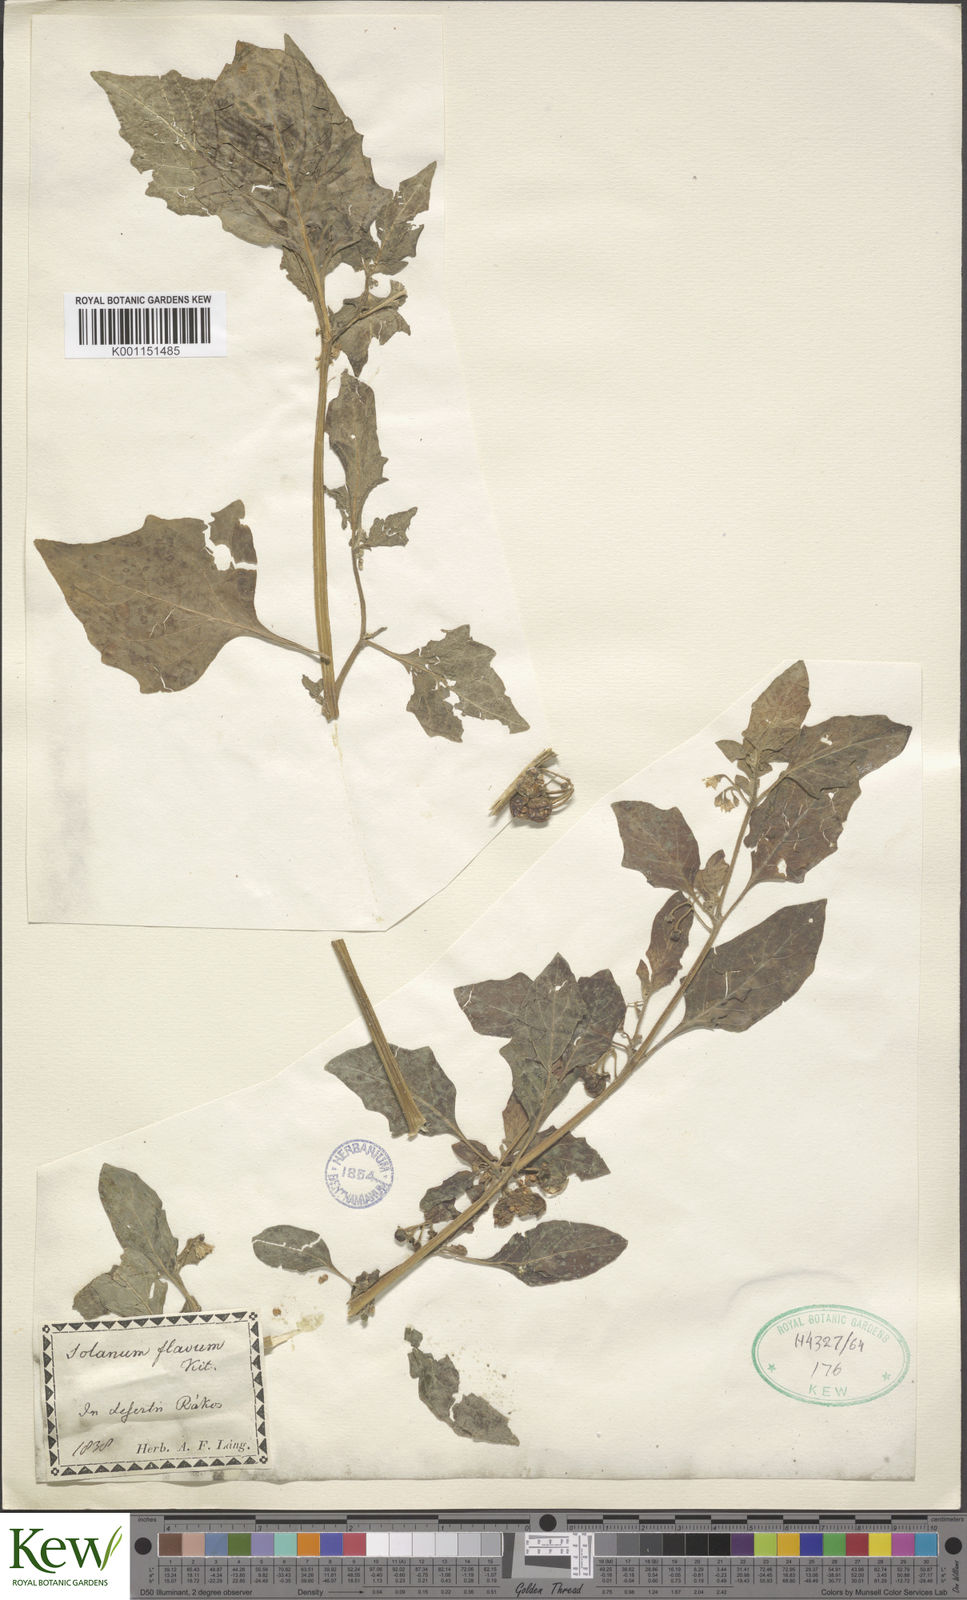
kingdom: Plantae
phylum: Tracheophyta
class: Magnoliopsida
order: Solanales
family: Solanaceae
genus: Solanum
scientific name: Solanum villosum
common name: Red nightshade
